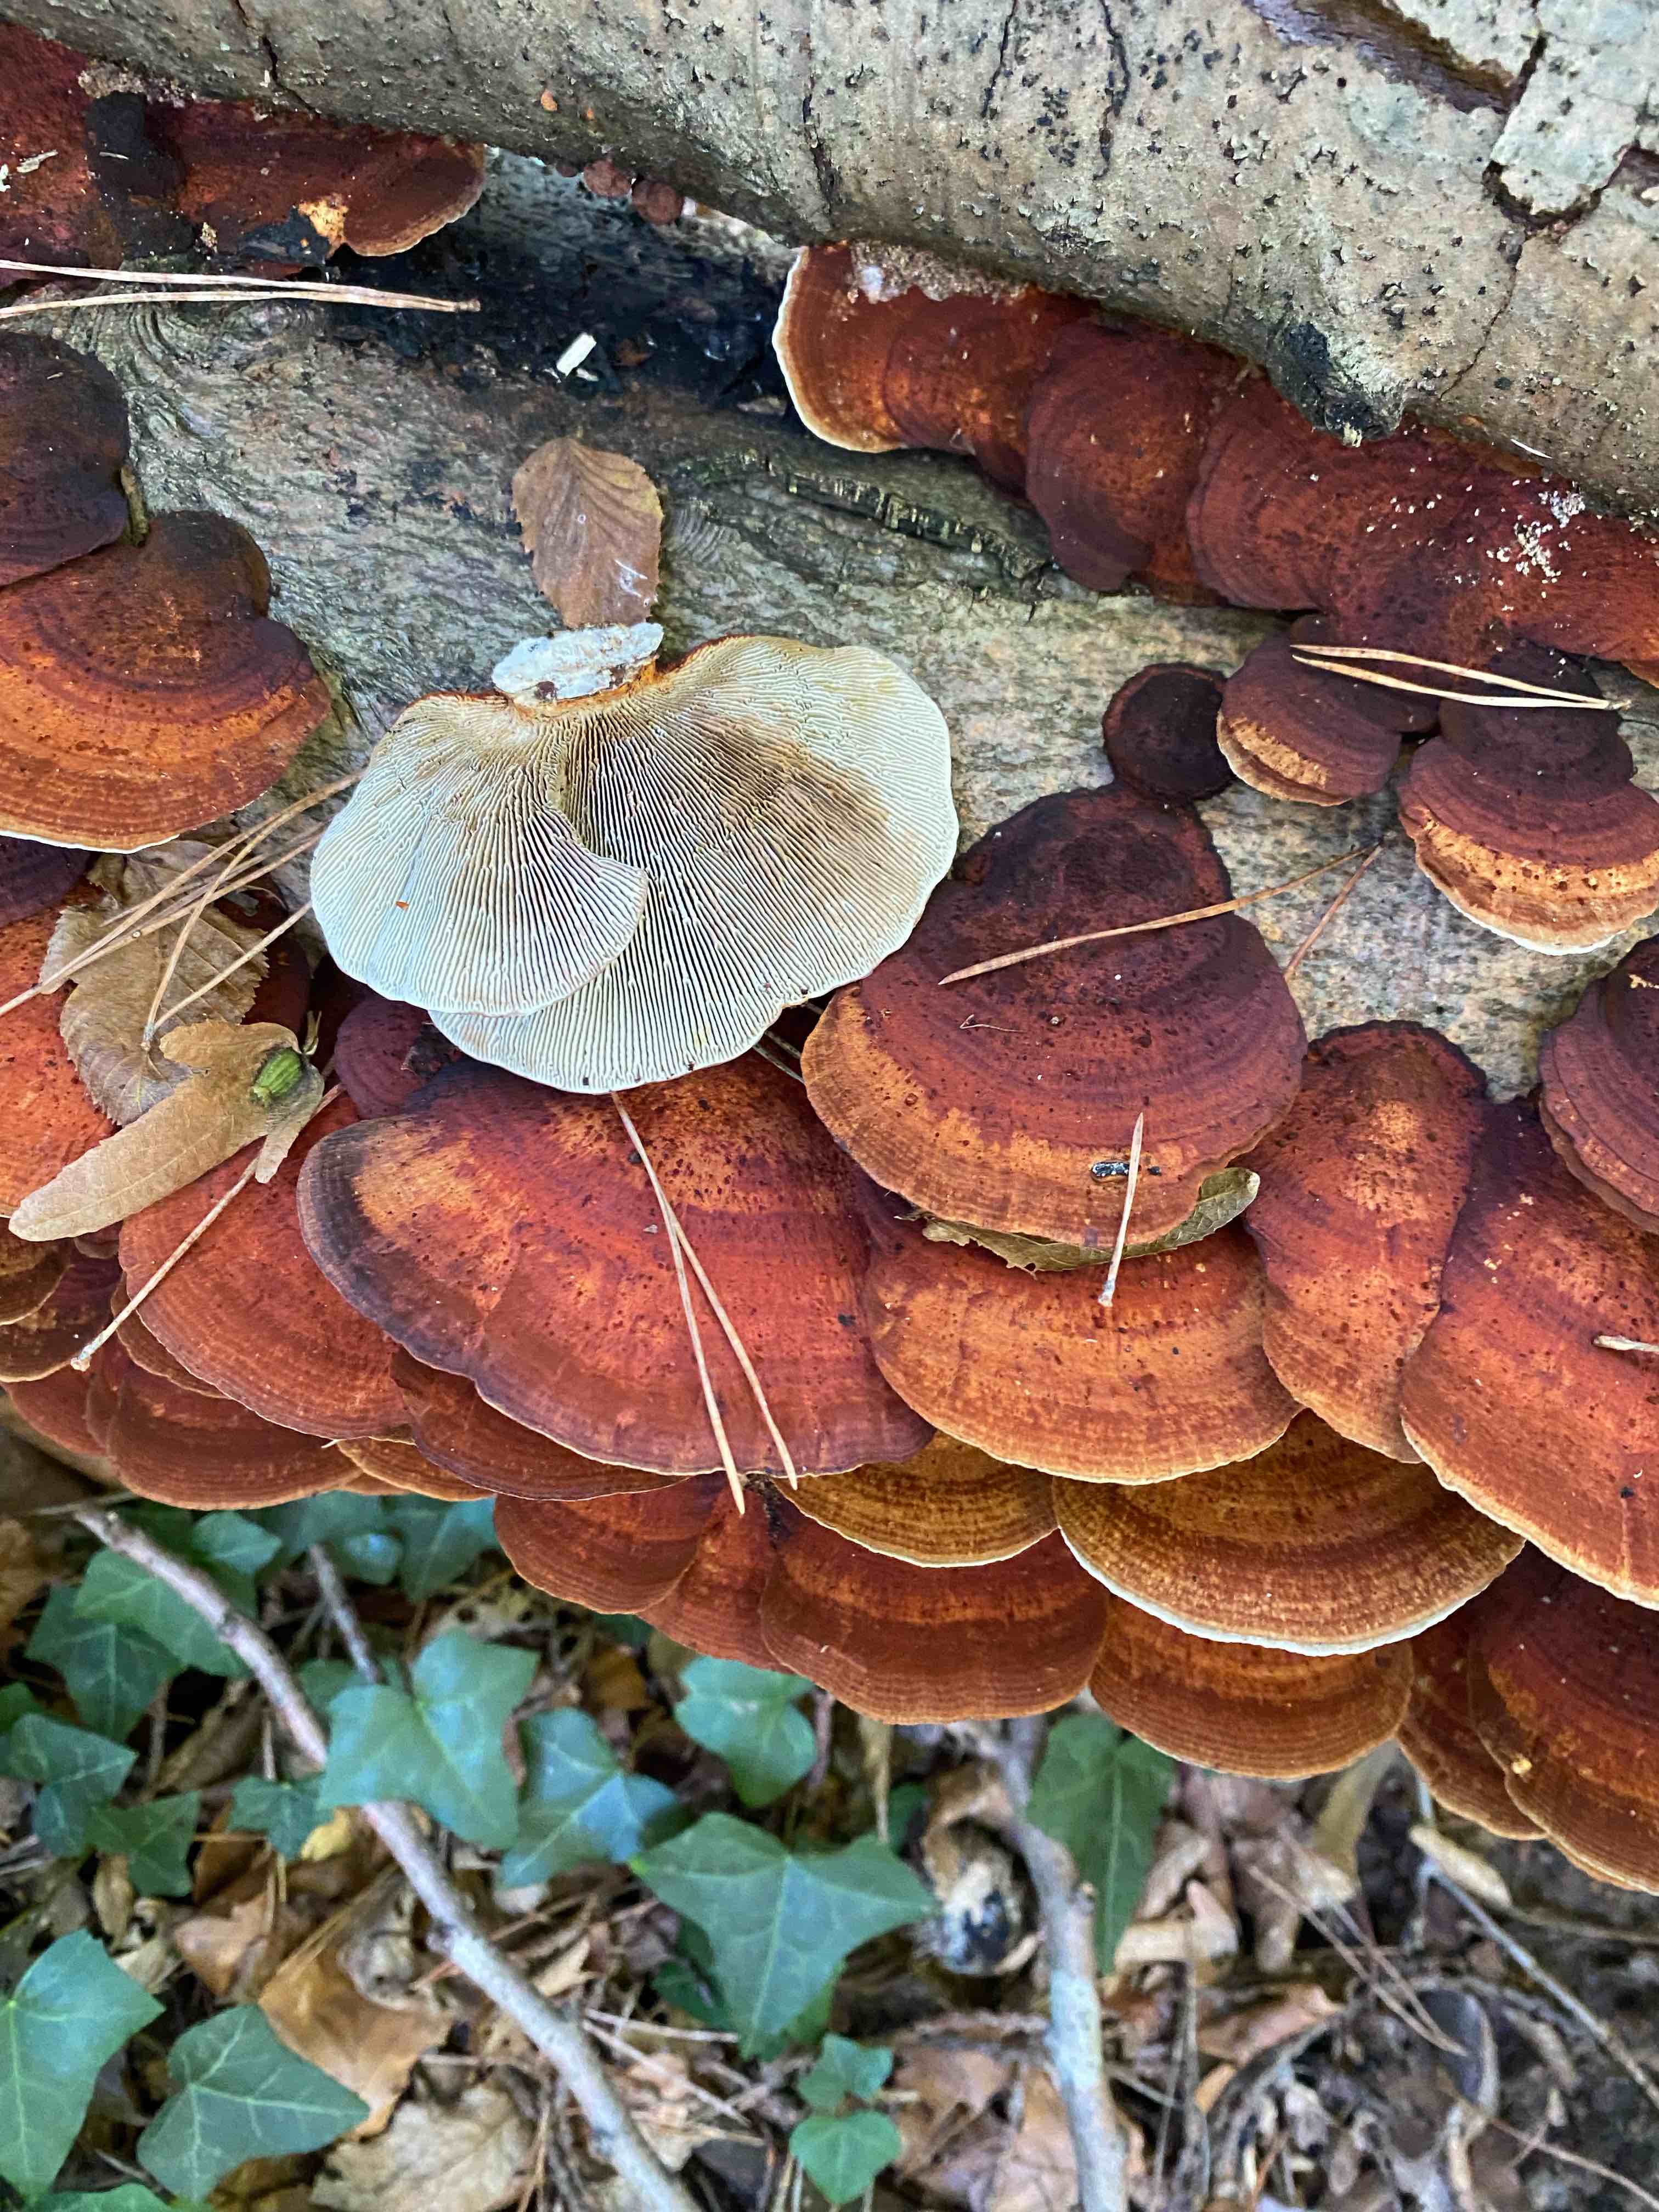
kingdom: Fungi
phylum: Basidiomycota
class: Agaricomycetes
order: Polyporales
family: Polyporaceae
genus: Daedaleopsis
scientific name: Daedaleopsis confragosa
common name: rødmende læderporesvamp
